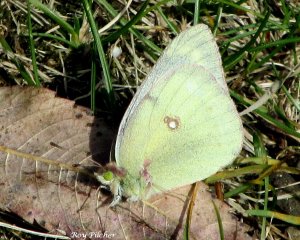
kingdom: Animalia
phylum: Arthropoda
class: Insecta
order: Lepidoptera
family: Pieridae
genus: Colias
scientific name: Colias philodice
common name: Clouded Sulphur
